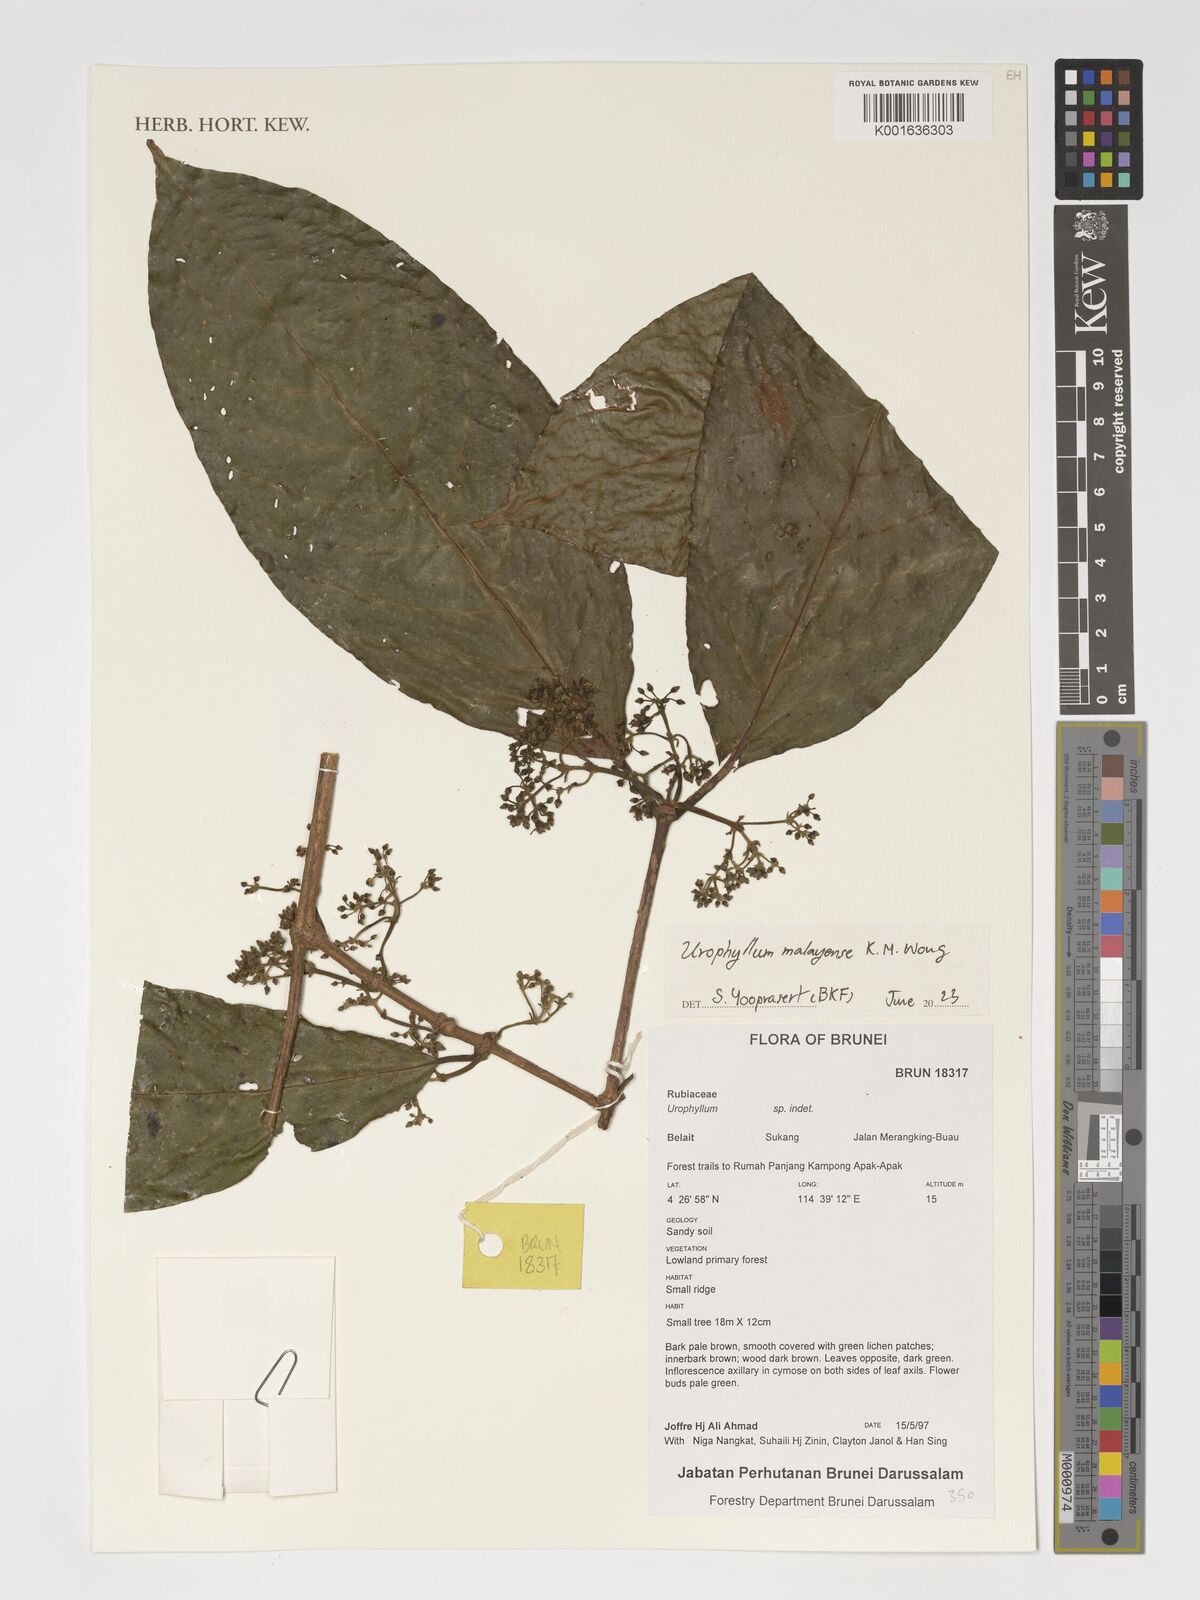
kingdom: Plantae
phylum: Tracheophyta
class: Magnoliopsida
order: Gentianales
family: Rubiaceae
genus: Urophyllum
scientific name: Urophyllum malayense
